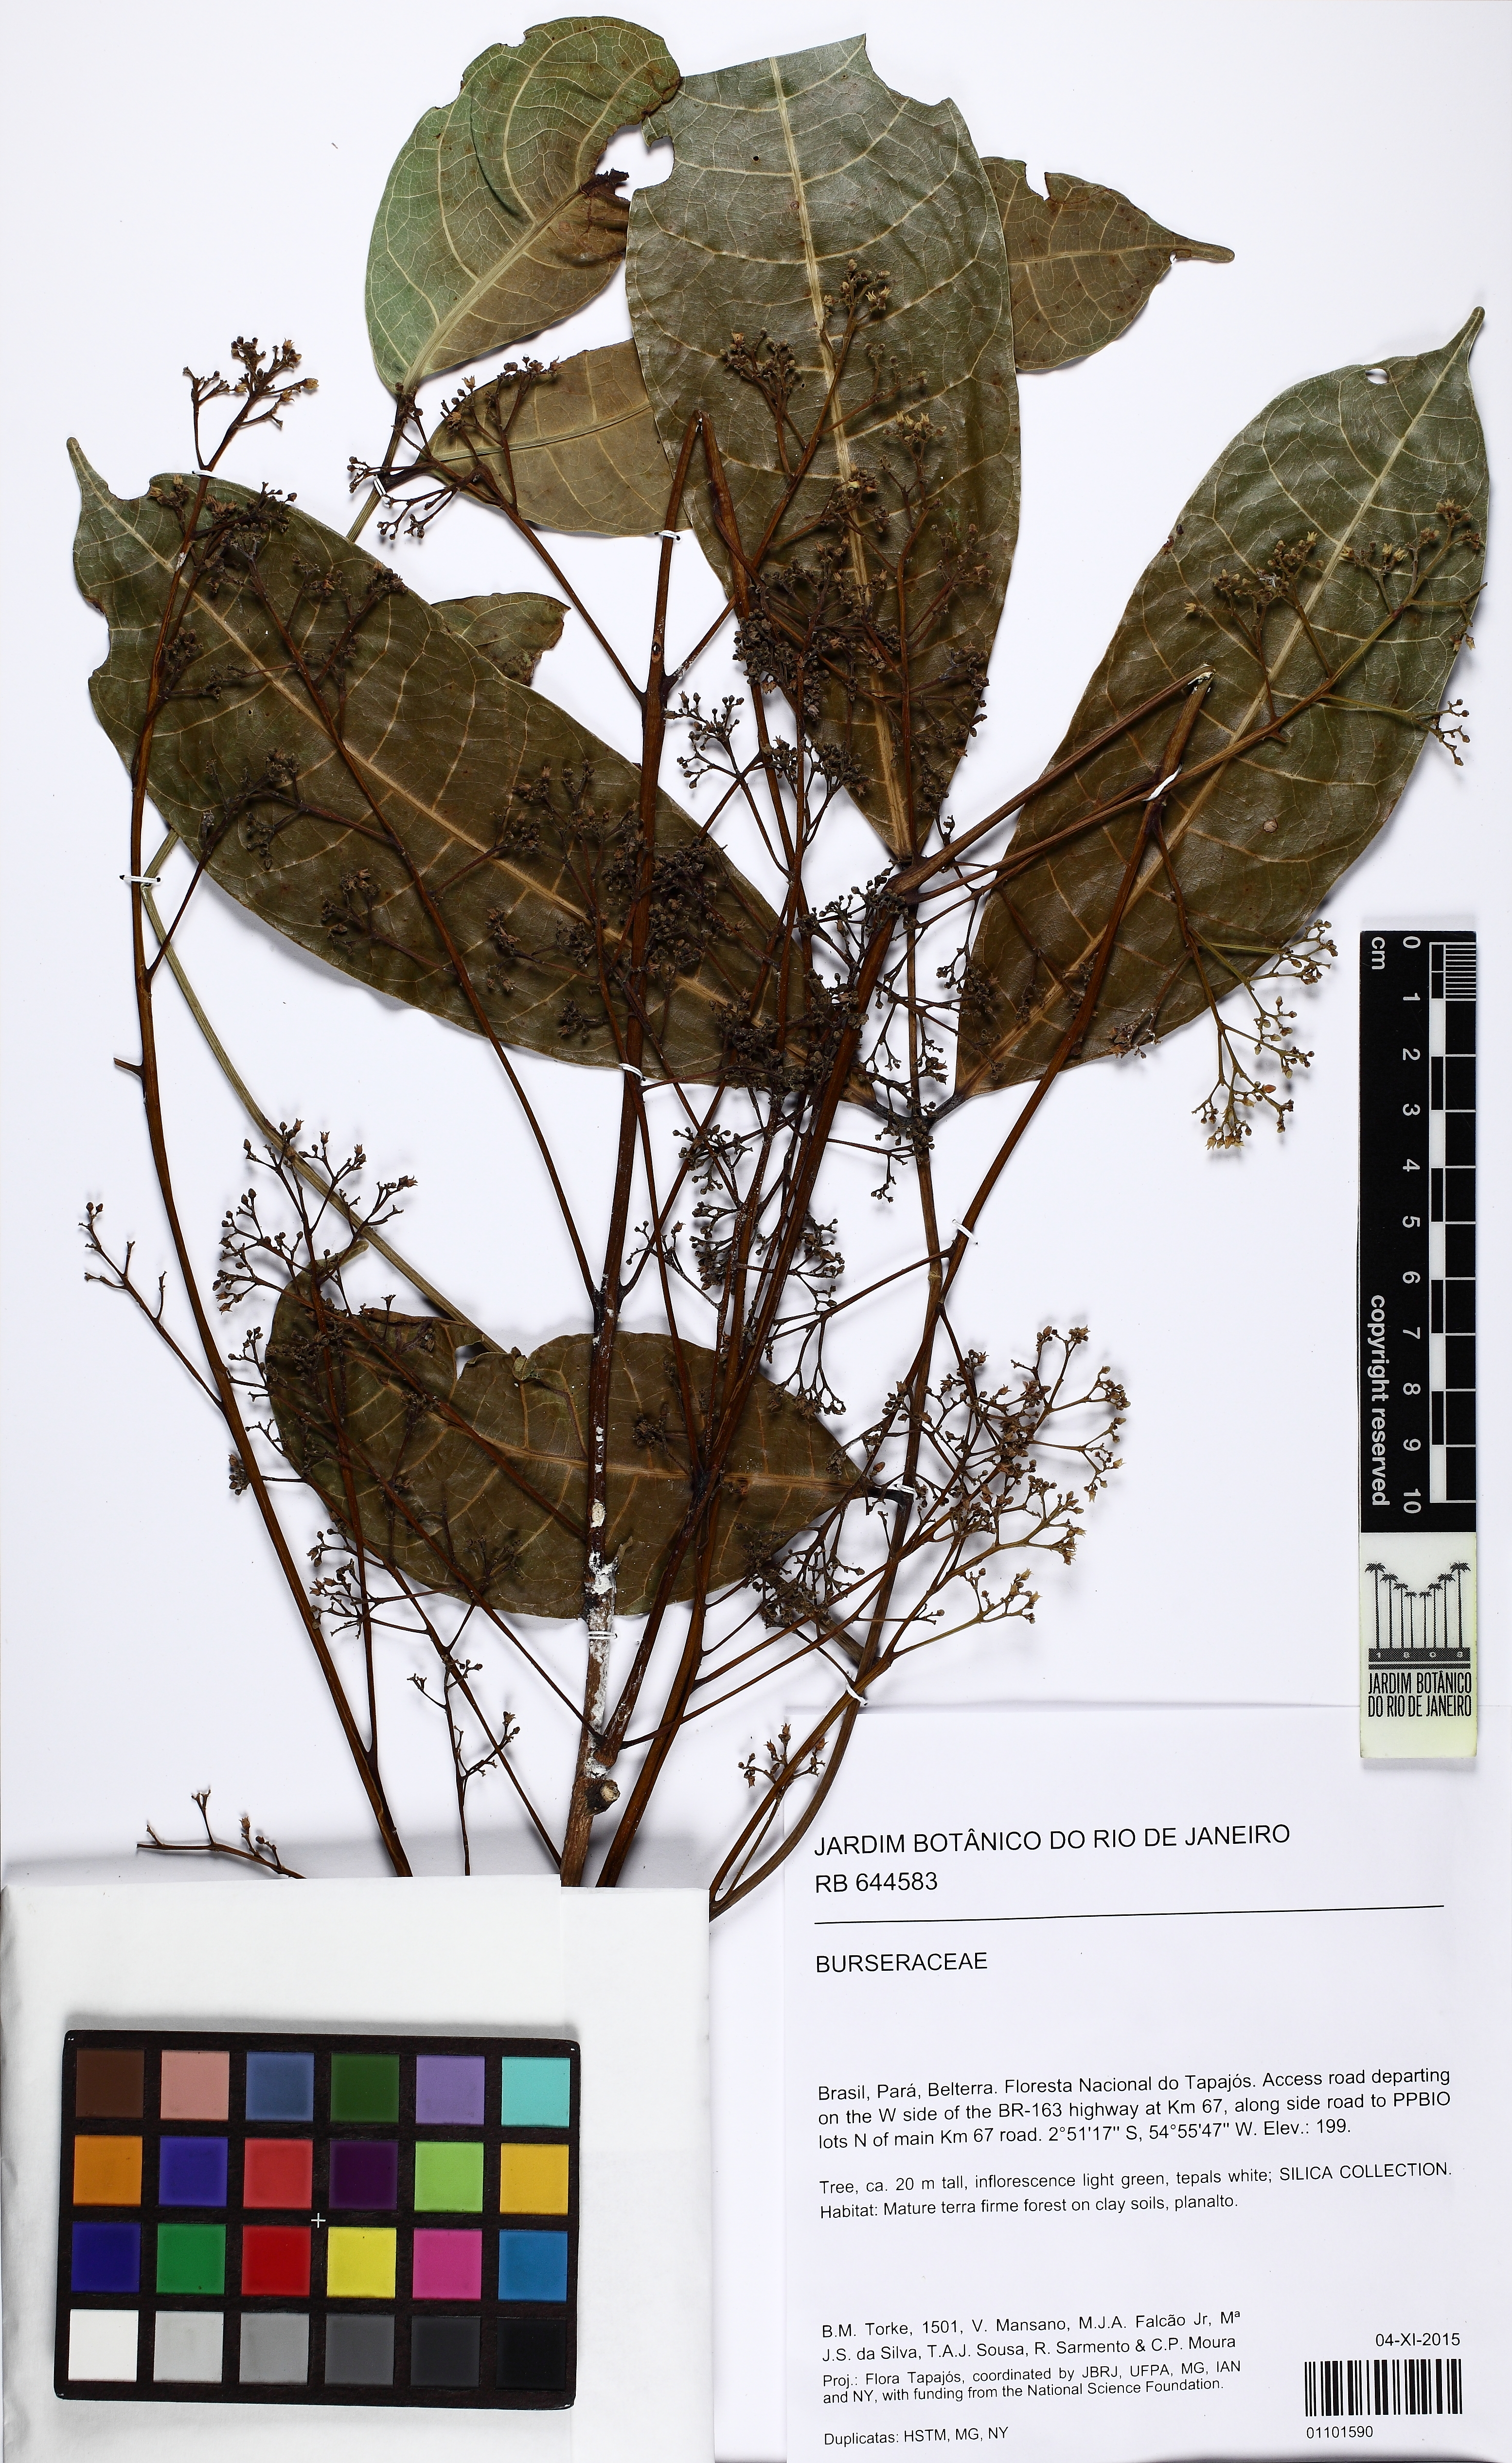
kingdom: Plantae
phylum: Tracheophyta
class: Magnoliopsida
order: Sapindales
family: Burseraceae
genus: Protium
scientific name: Protium paniculatum
